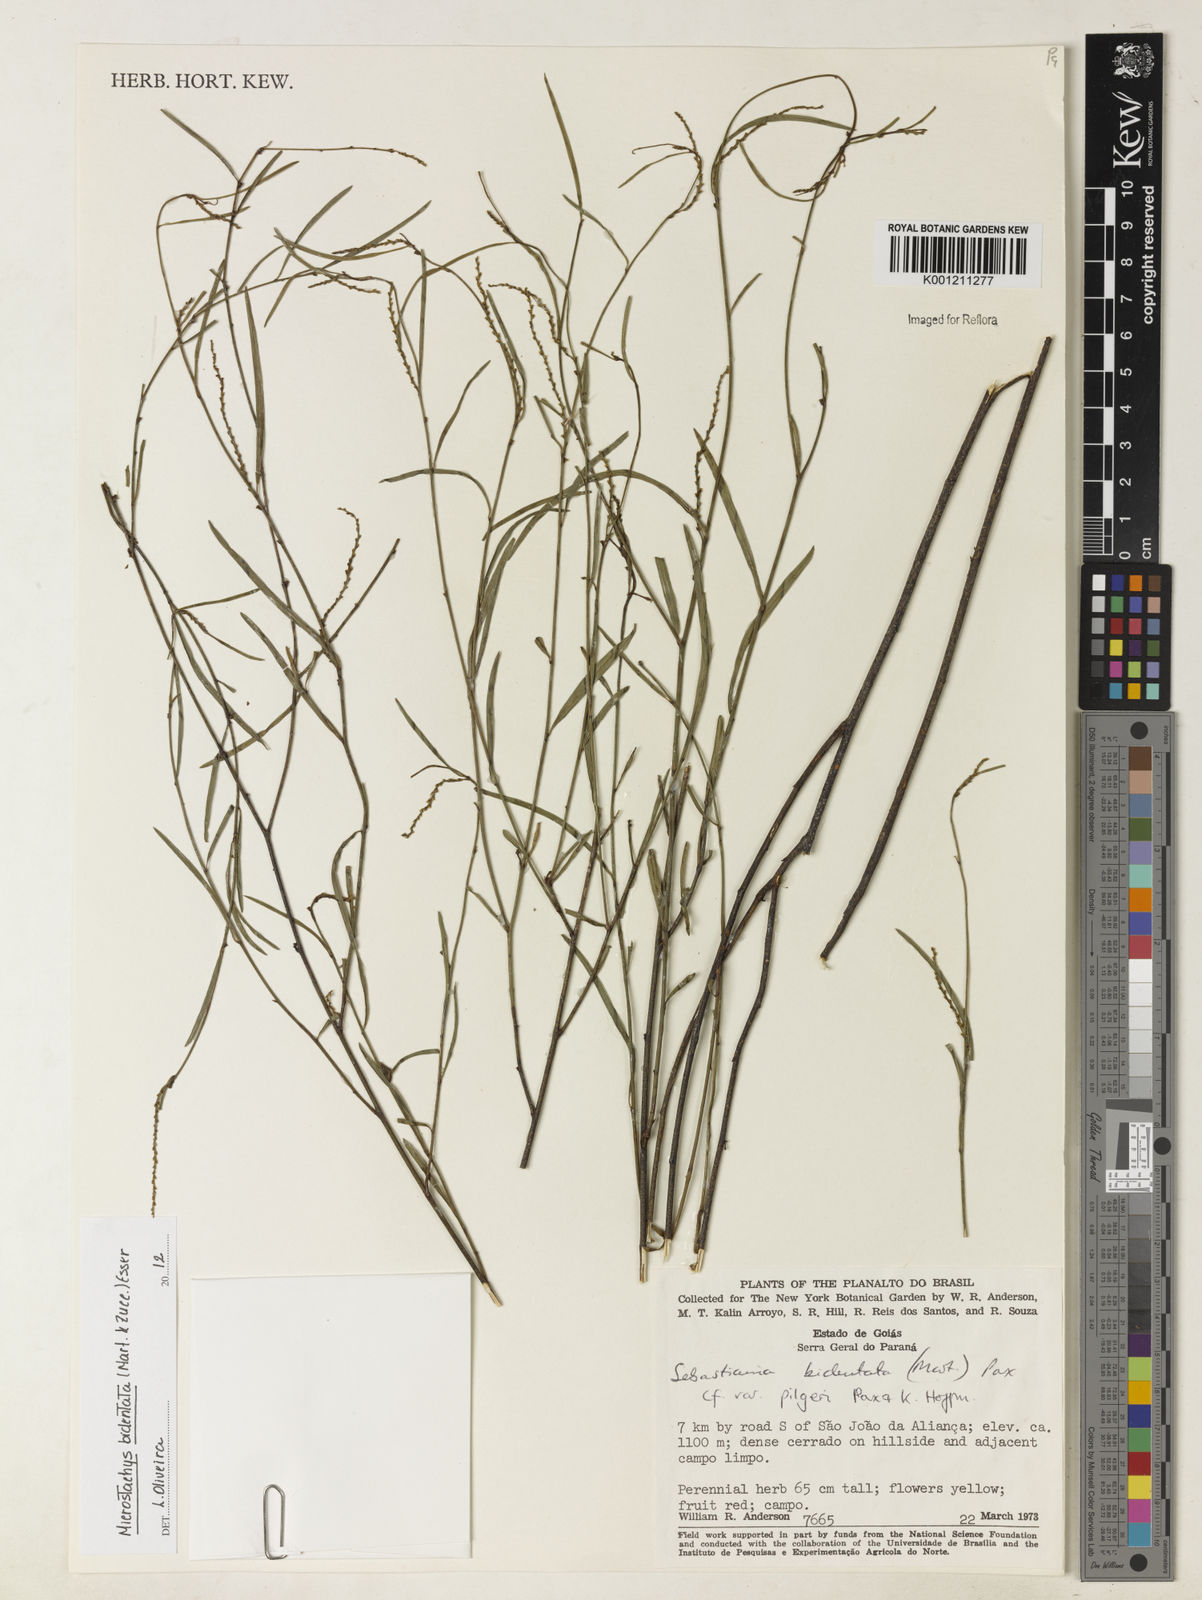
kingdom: Plantae
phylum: Tracheophyta
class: Magnoliopsida
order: Malpighiales
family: Euphorbiaceae
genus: Microstachys
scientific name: Microstachys bidentata
